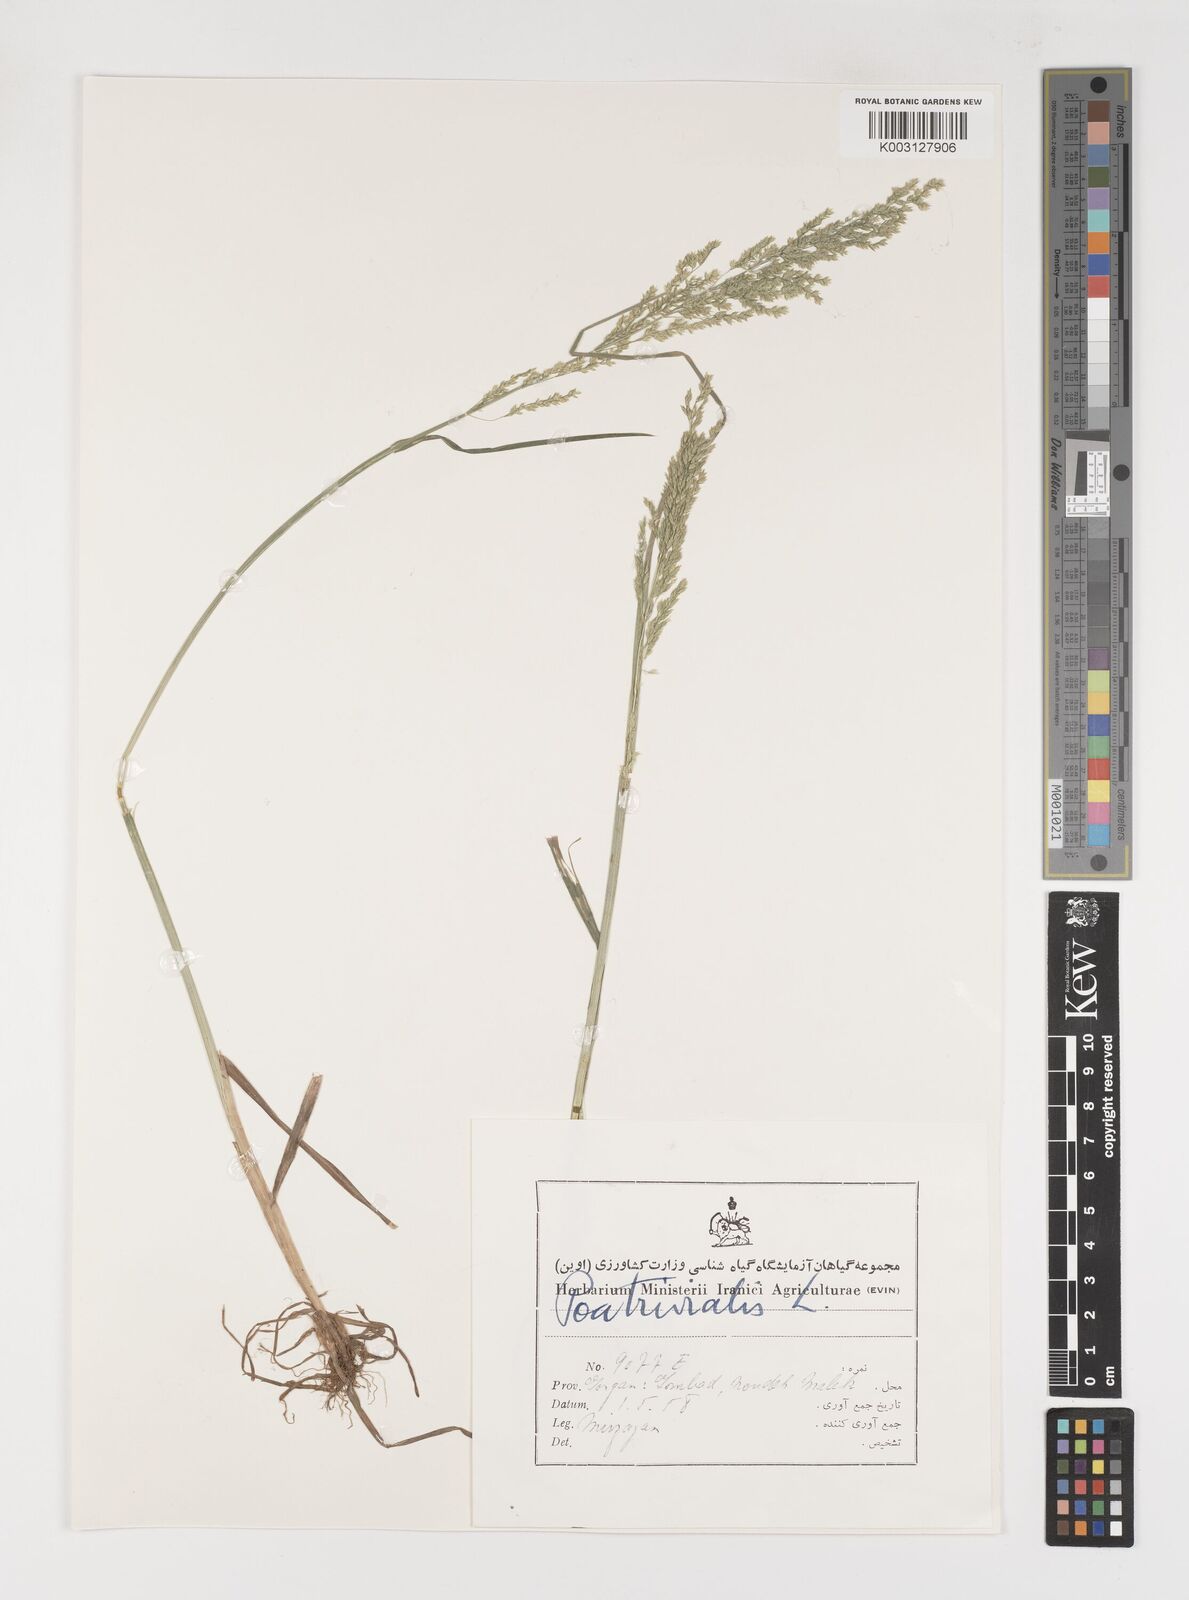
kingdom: Plantae
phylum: Tracheophyta
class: Liliopsida
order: Poales
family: Poaceae
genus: Poa
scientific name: Poa trivialis
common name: Rough bluegrass
